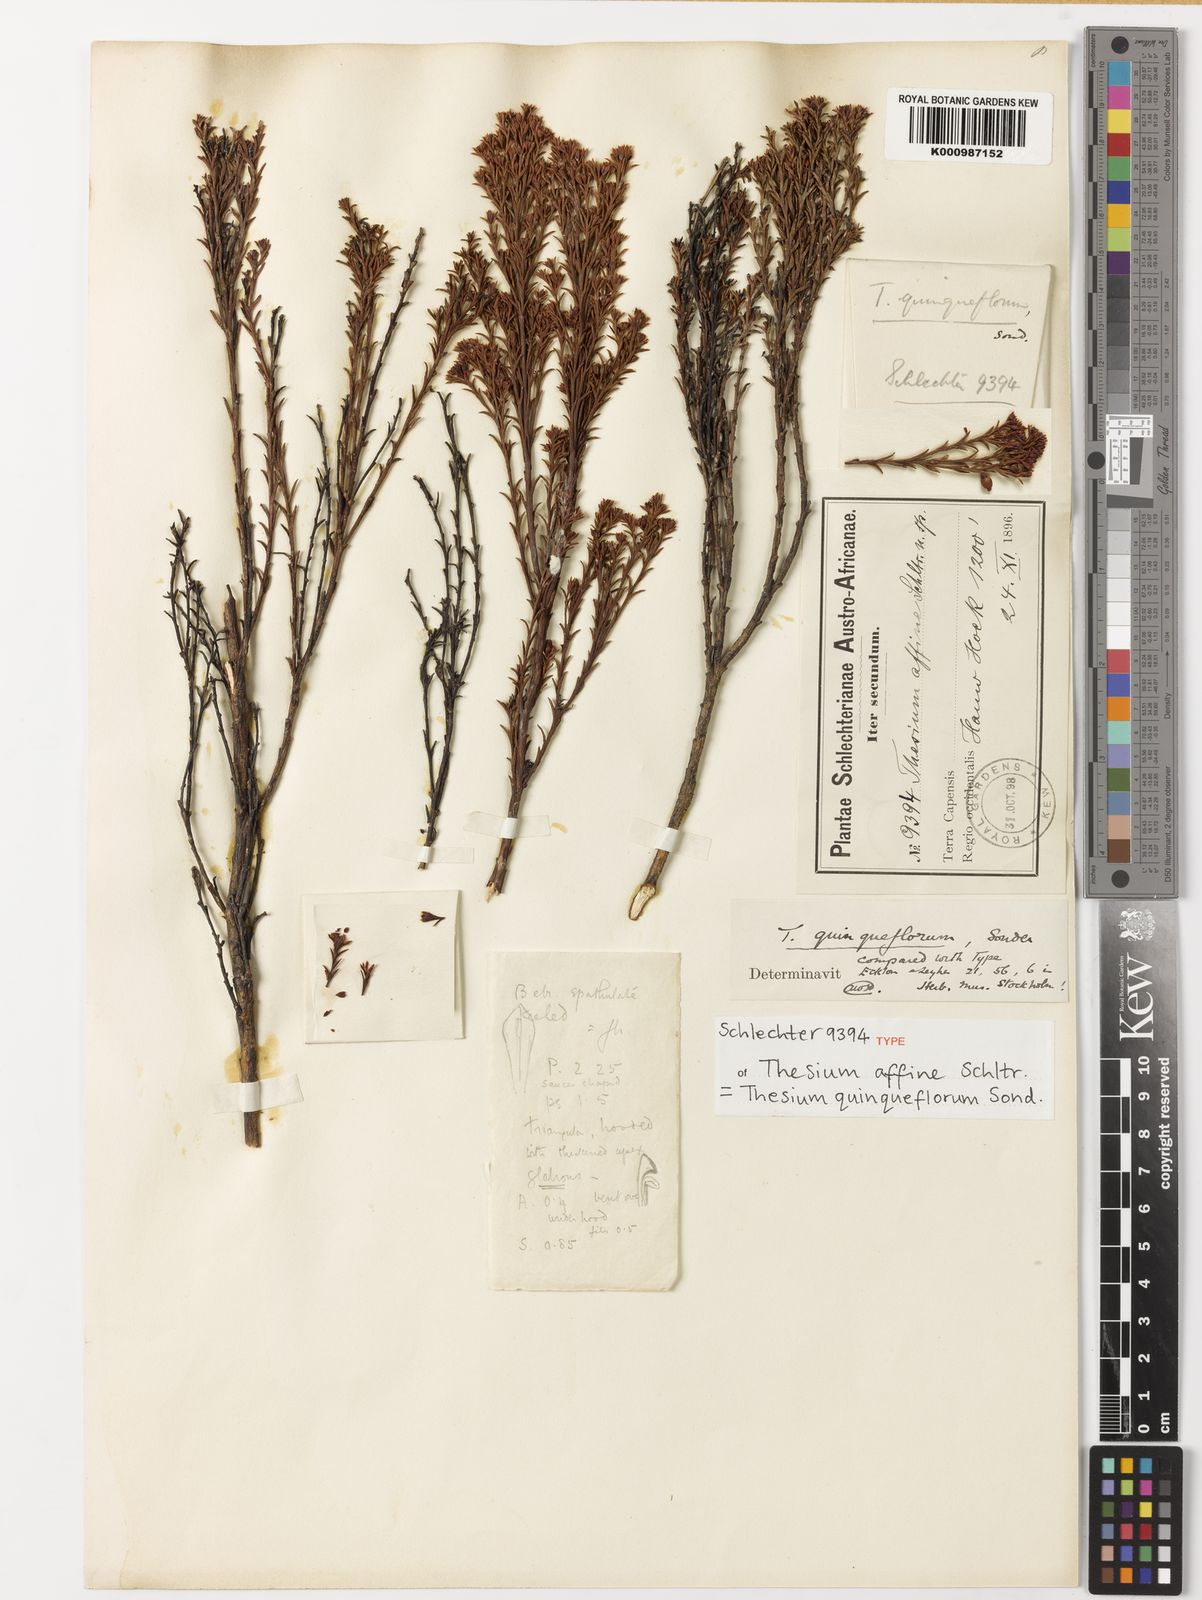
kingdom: Plantae
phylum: Tracheophyta
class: Magnoliopsida
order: Santalales
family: Thesiaceae
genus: Thesium
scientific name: Thesium quinqueflorum
